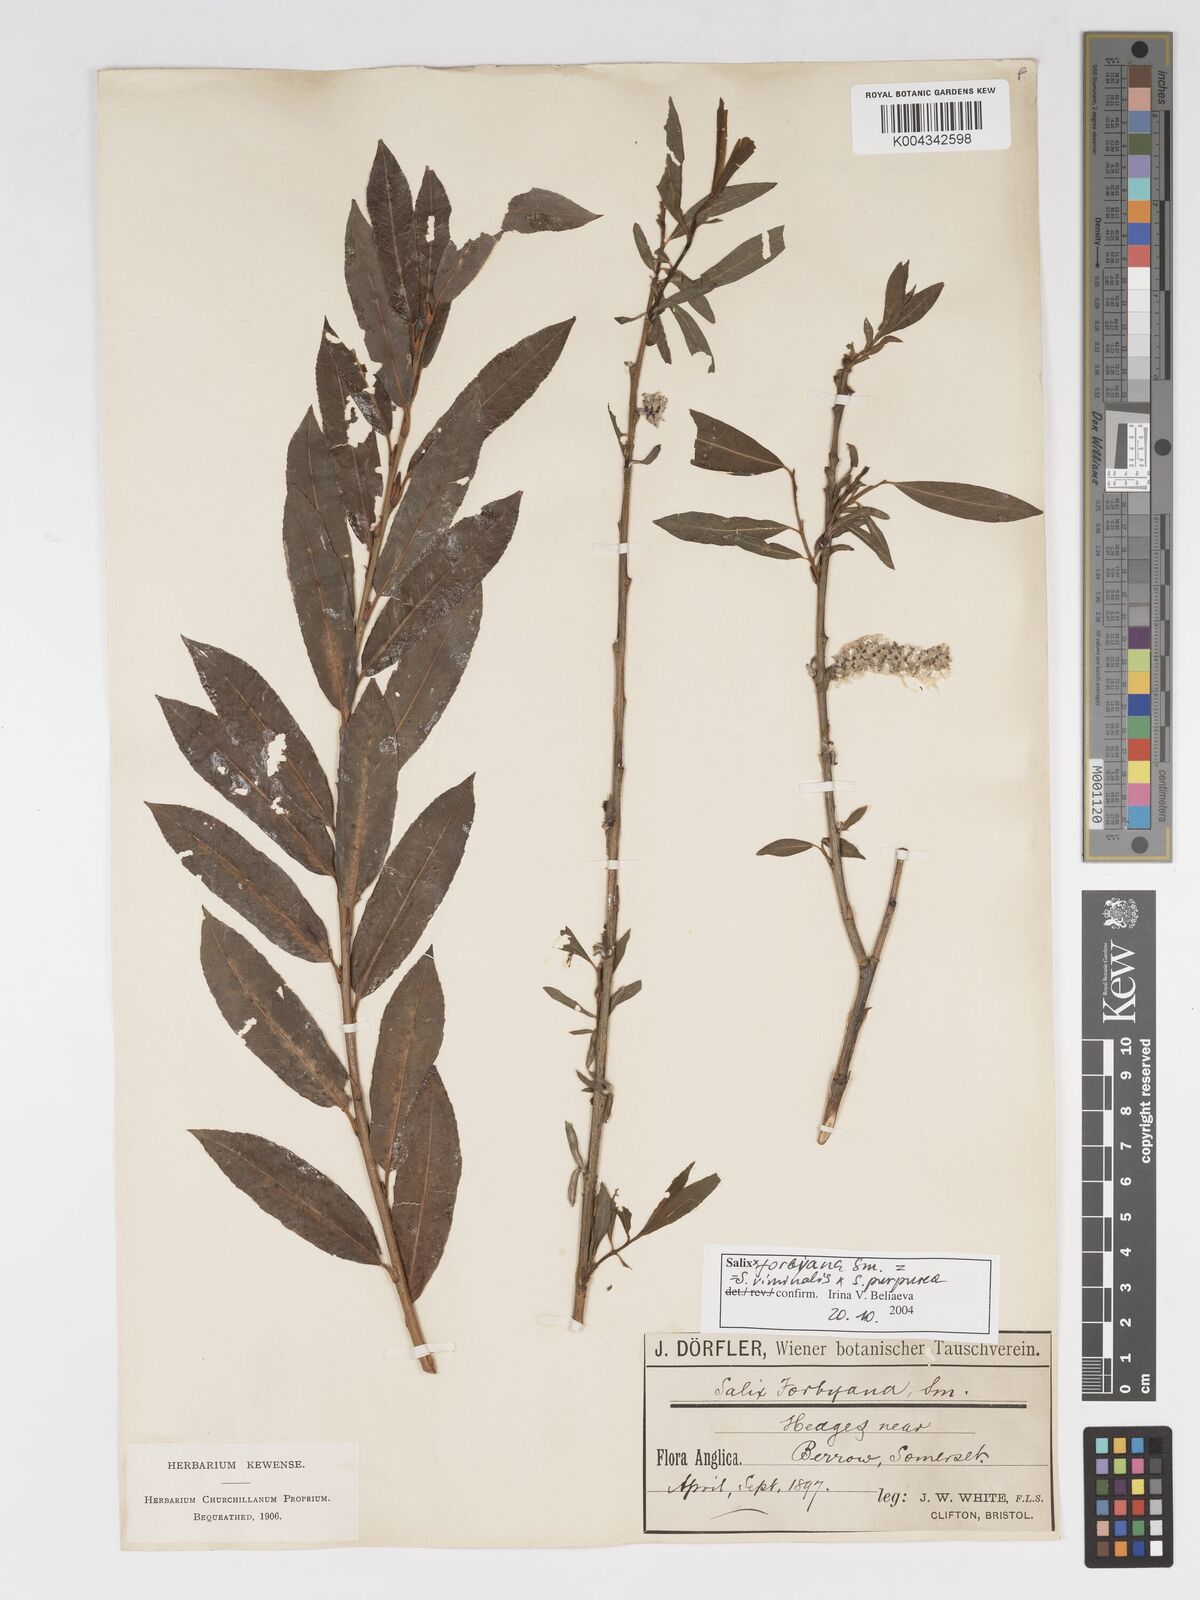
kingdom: Plantae
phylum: Tracheophyta
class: Magnoliopsida
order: Malpighiales
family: Salicaceae
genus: Salix
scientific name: Salix cinerea
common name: Common sallow
